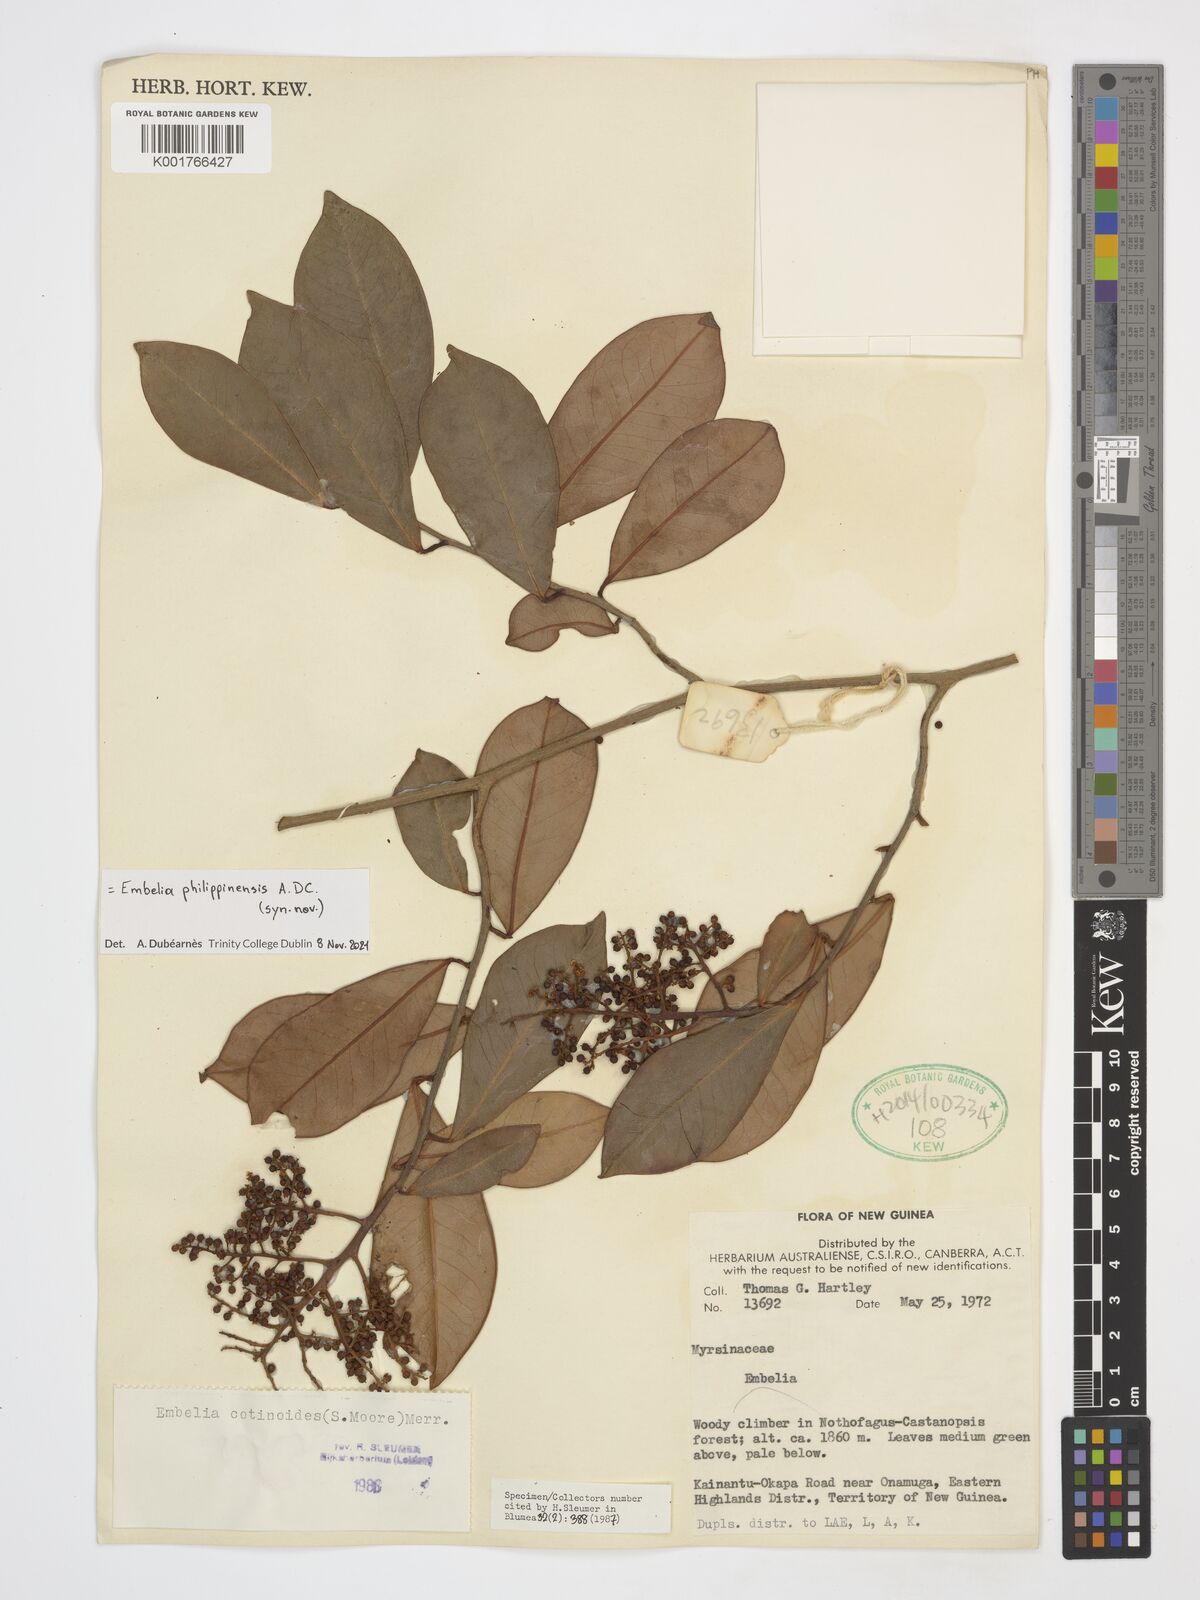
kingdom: Plantae
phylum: Tracheophyta
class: Magnoliopsida
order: Ericales
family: Primulaceae
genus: Embelia
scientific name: Embelia philippinensis
